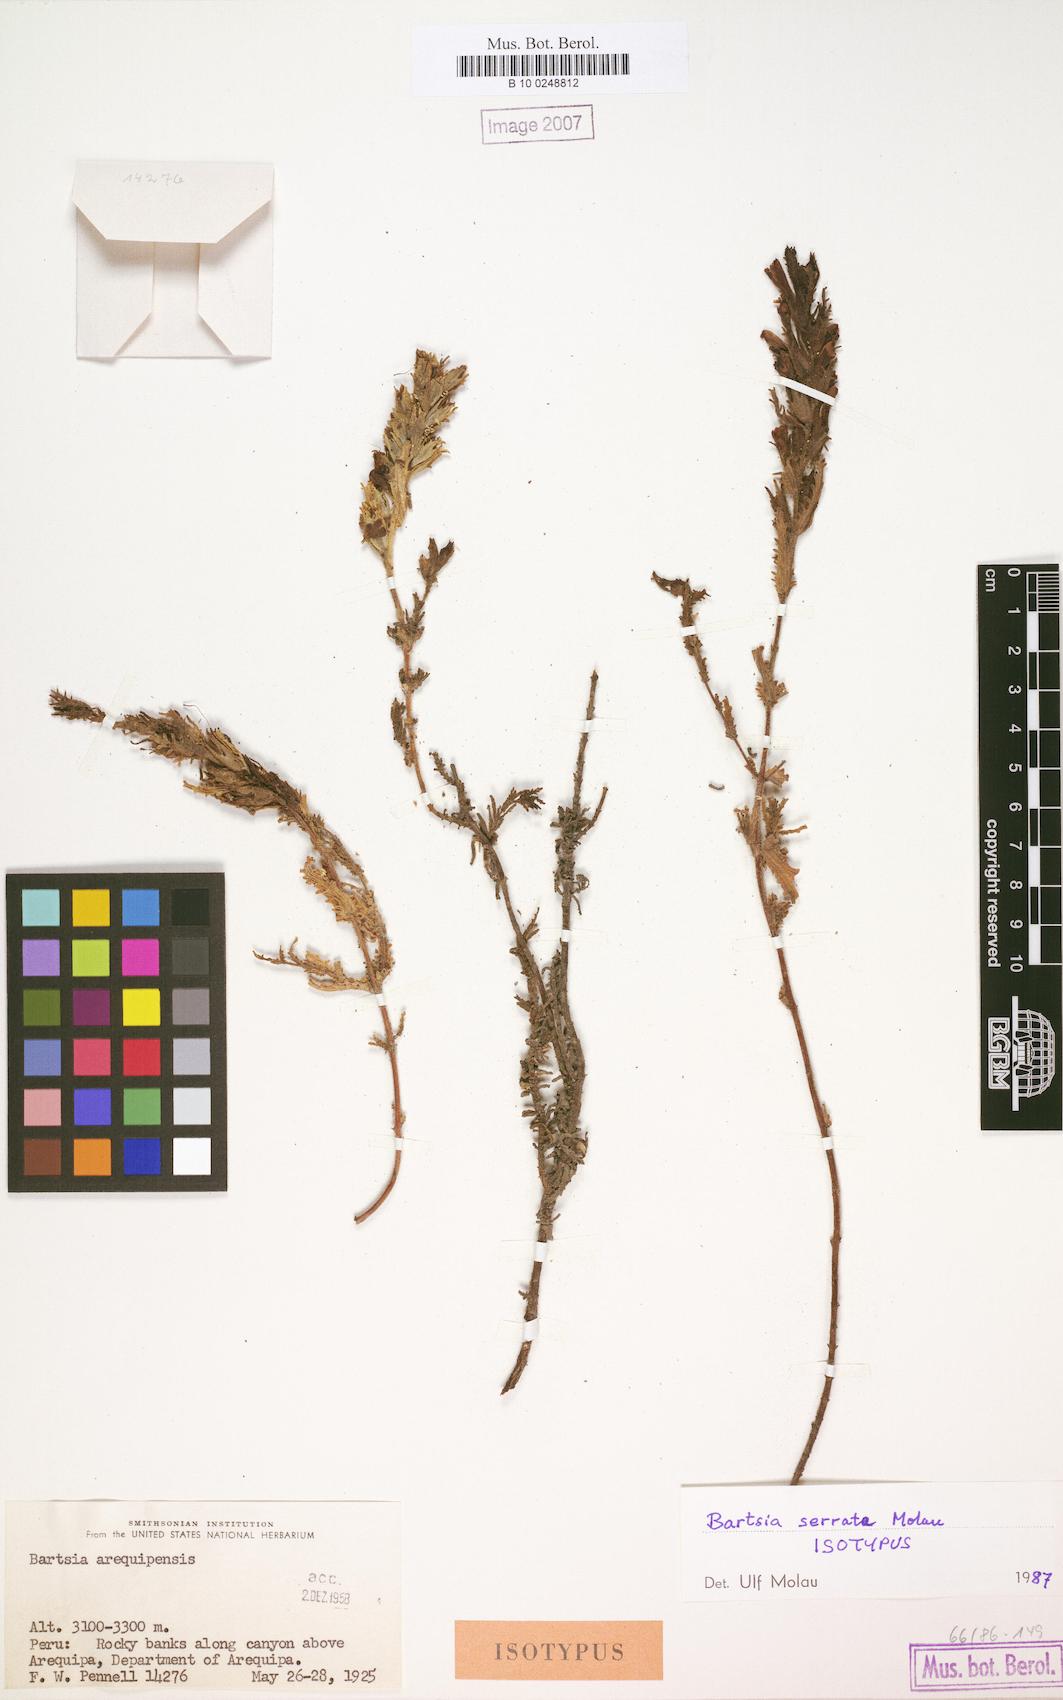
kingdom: Plantae
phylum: Tracheophyta
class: Magnoliopsida
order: Lamiales
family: Orobanchaceae
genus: Neobartsia
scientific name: Neobartsia serrata
